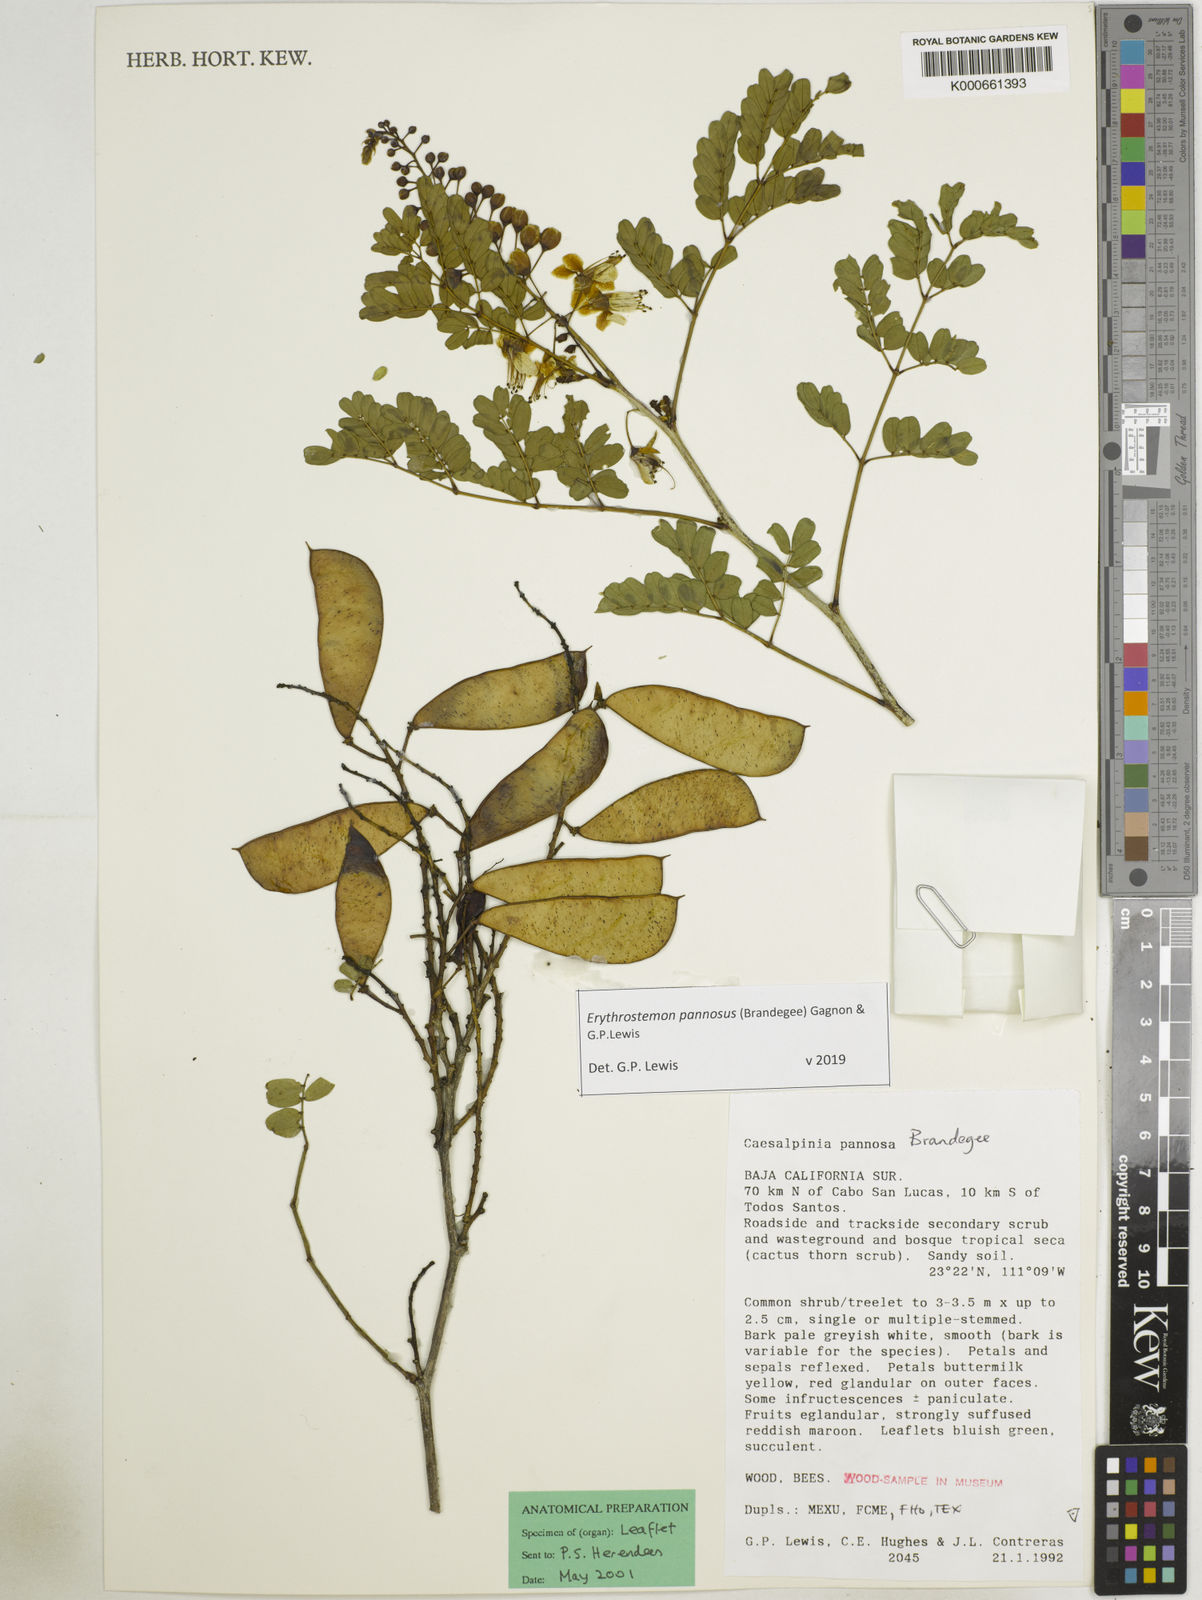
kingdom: Plantae
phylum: Tracheophyta
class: Magnoliopsida
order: Fabales
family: Fabaceae
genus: Erythrostemon
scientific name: Erythrostemon pannosus
